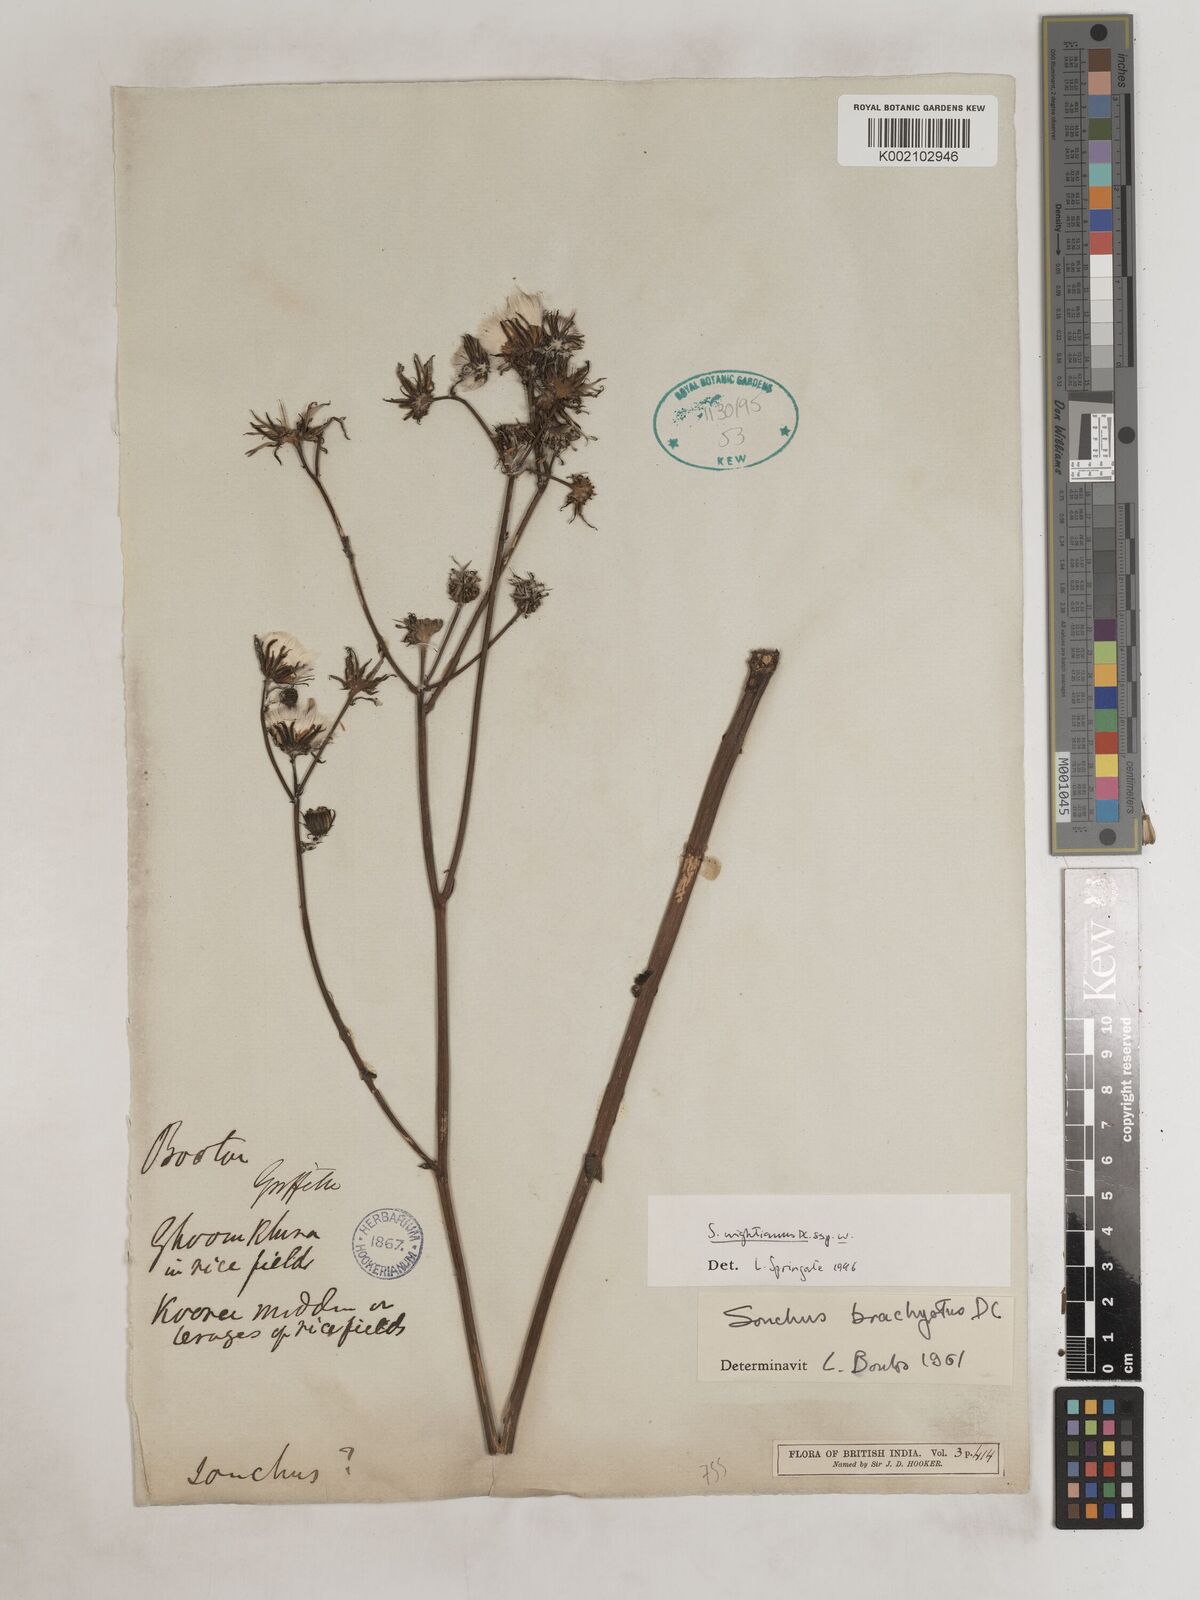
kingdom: Plantae
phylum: Tracheophyta
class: Magnoliopsida
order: Asterales
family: Asteraceae
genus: Sonchus
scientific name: Sonchus arvensis
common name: Perennial sow-thistle
